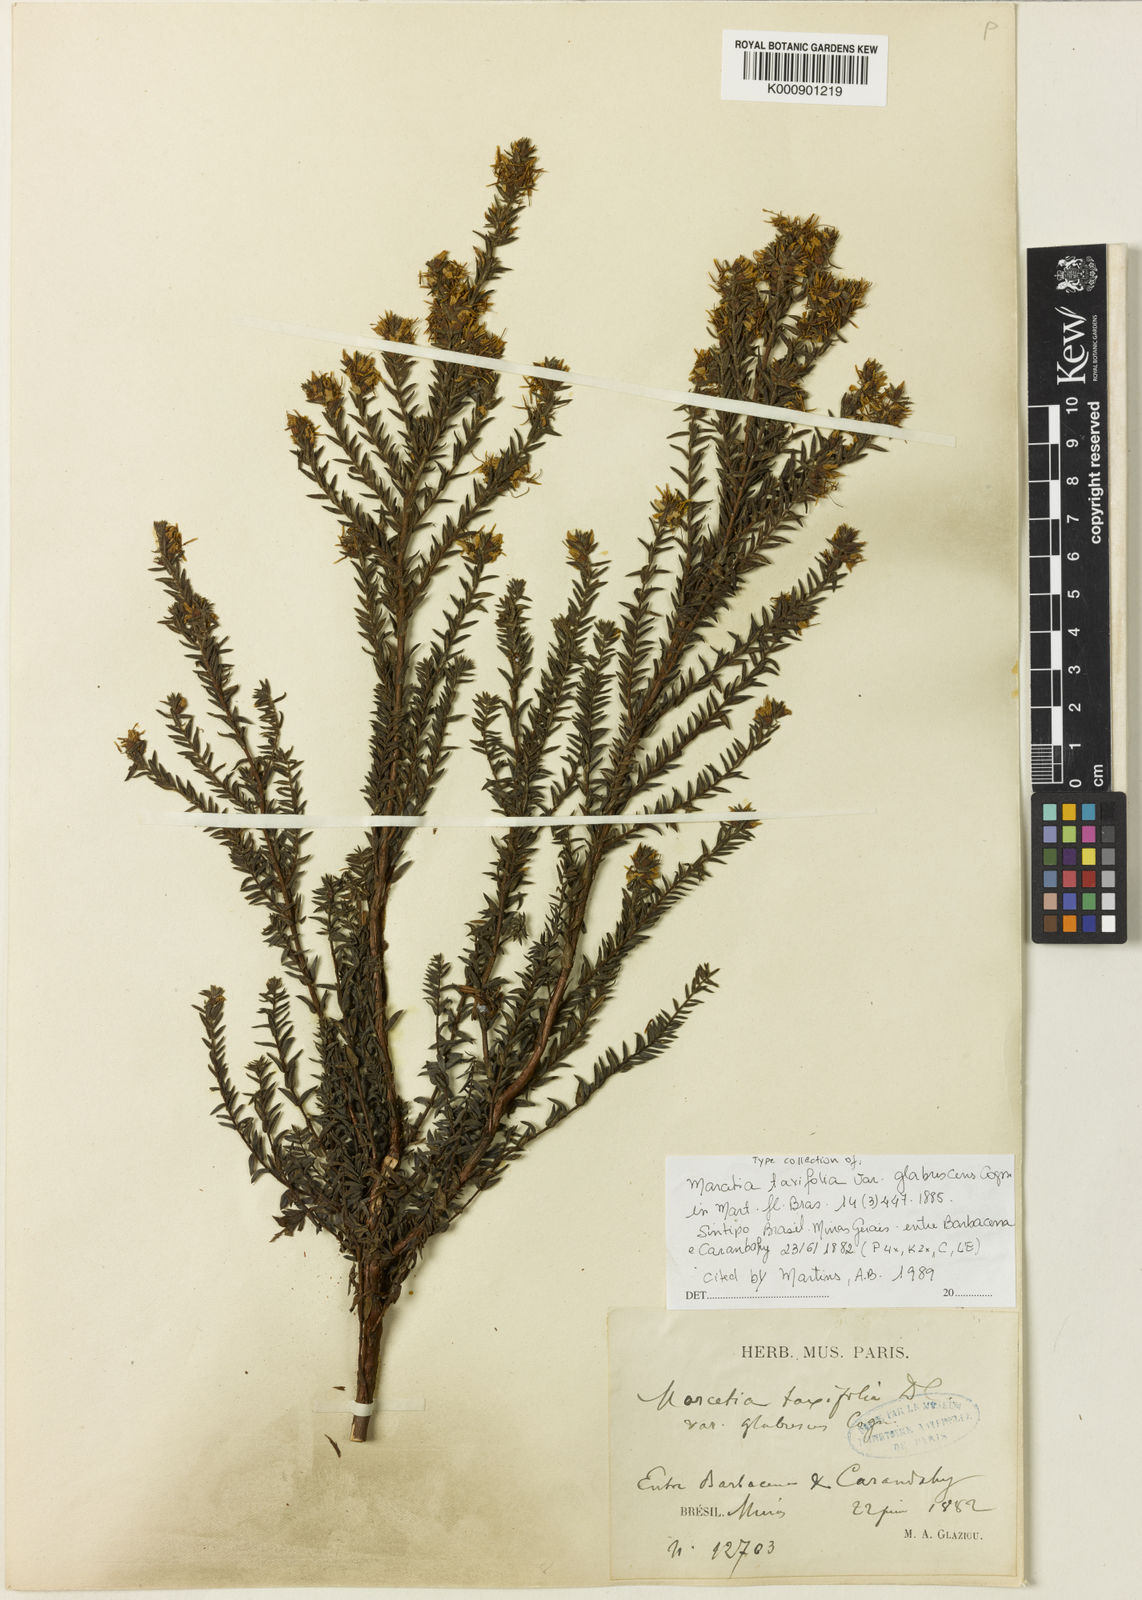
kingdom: Plantae
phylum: Tracheophyta
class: Magnoliopsida
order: Myrtales
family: Melastomataceae
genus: Marcetia
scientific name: Marcetia taxifolia
